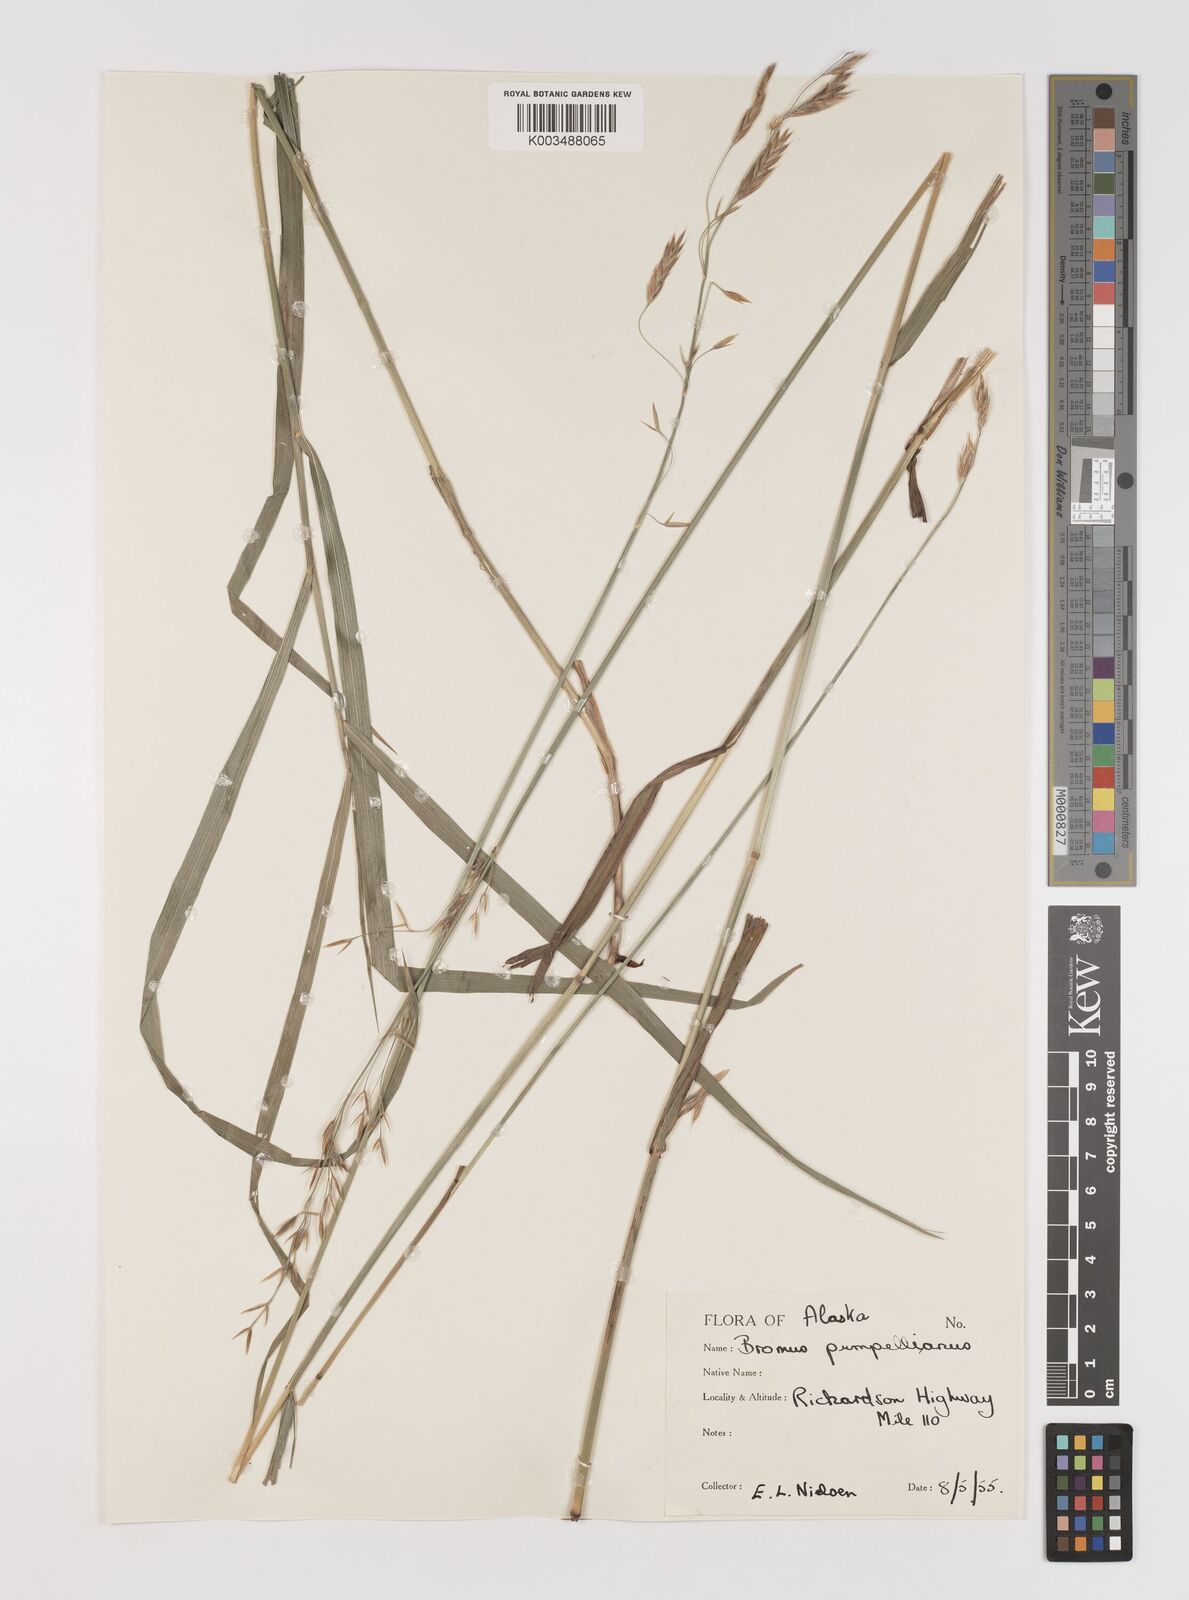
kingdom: Plantae
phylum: Tracheophyta
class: Liliopsida
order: Poales
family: Poaceae
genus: Bromus
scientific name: Bromus pumpellianus
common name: Pumpelly's brome
